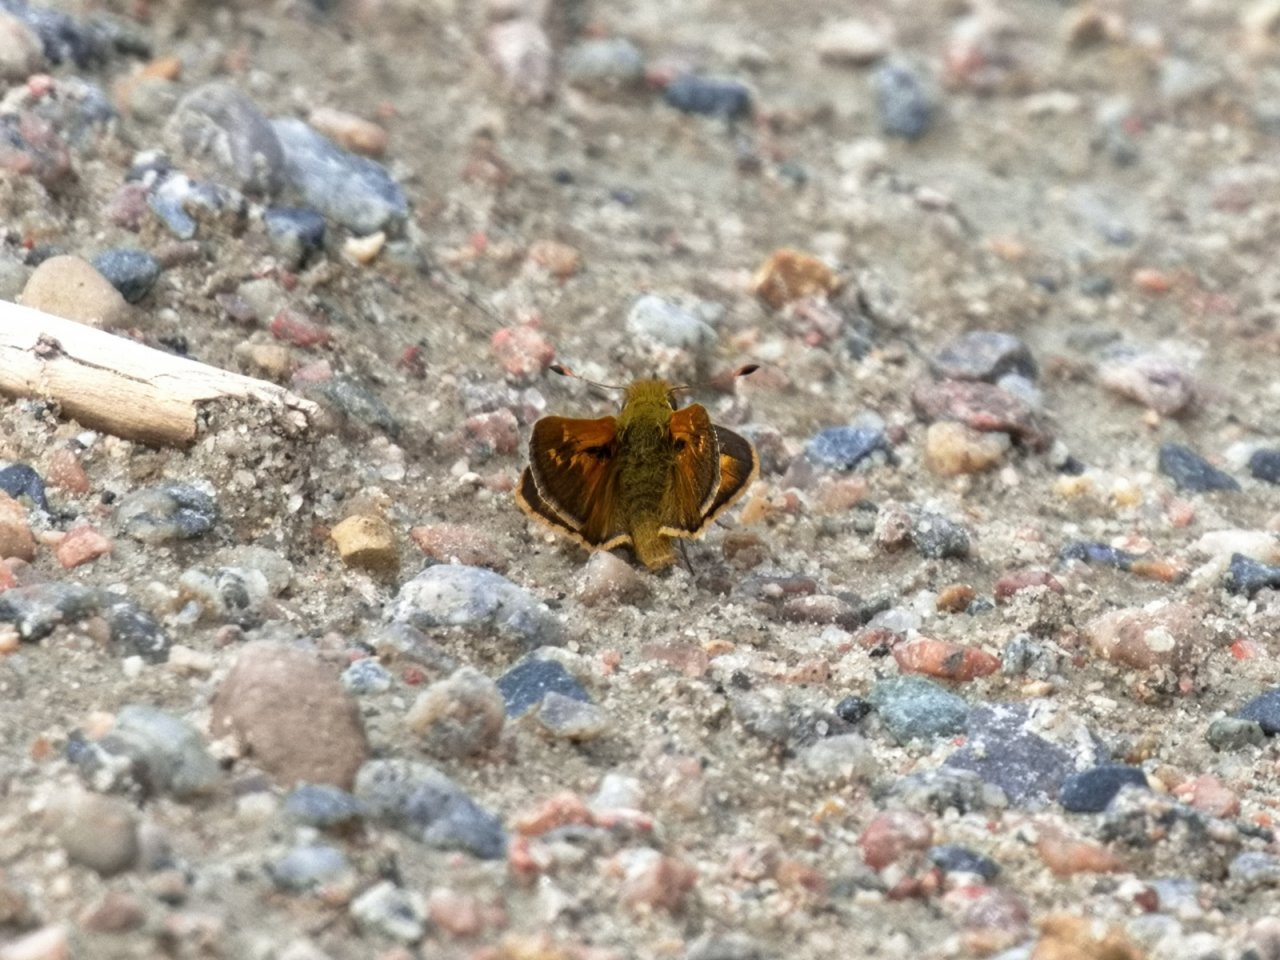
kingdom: Animalia
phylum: Arthropoda
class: Insecta
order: Lepidoptera
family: Hesperiidae
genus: Hesperia
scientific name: Hesperia comma
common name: Common Branded Skipper
